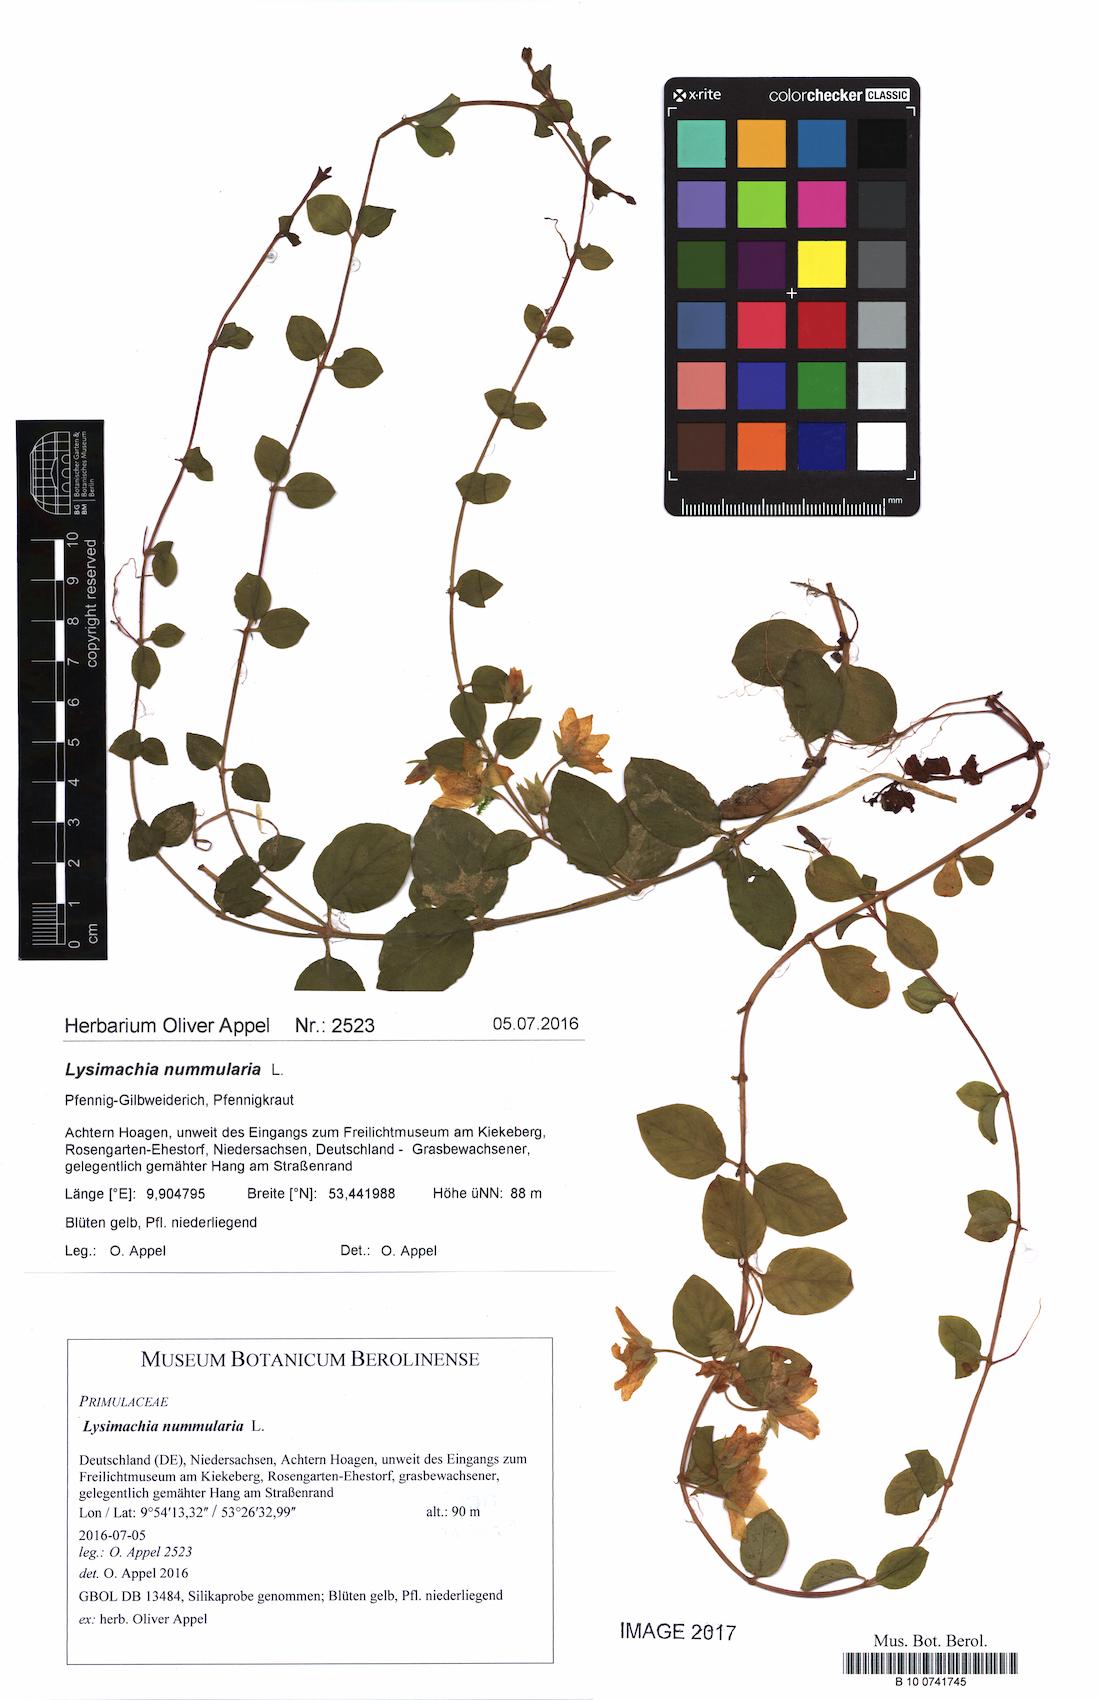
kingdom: Plantae
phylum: Tracheophyta
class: Magnoliopsida
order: Ericales
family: Primulaceae
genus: Lysimachia
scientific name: Lysimachia nummularia
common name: Moneywort
